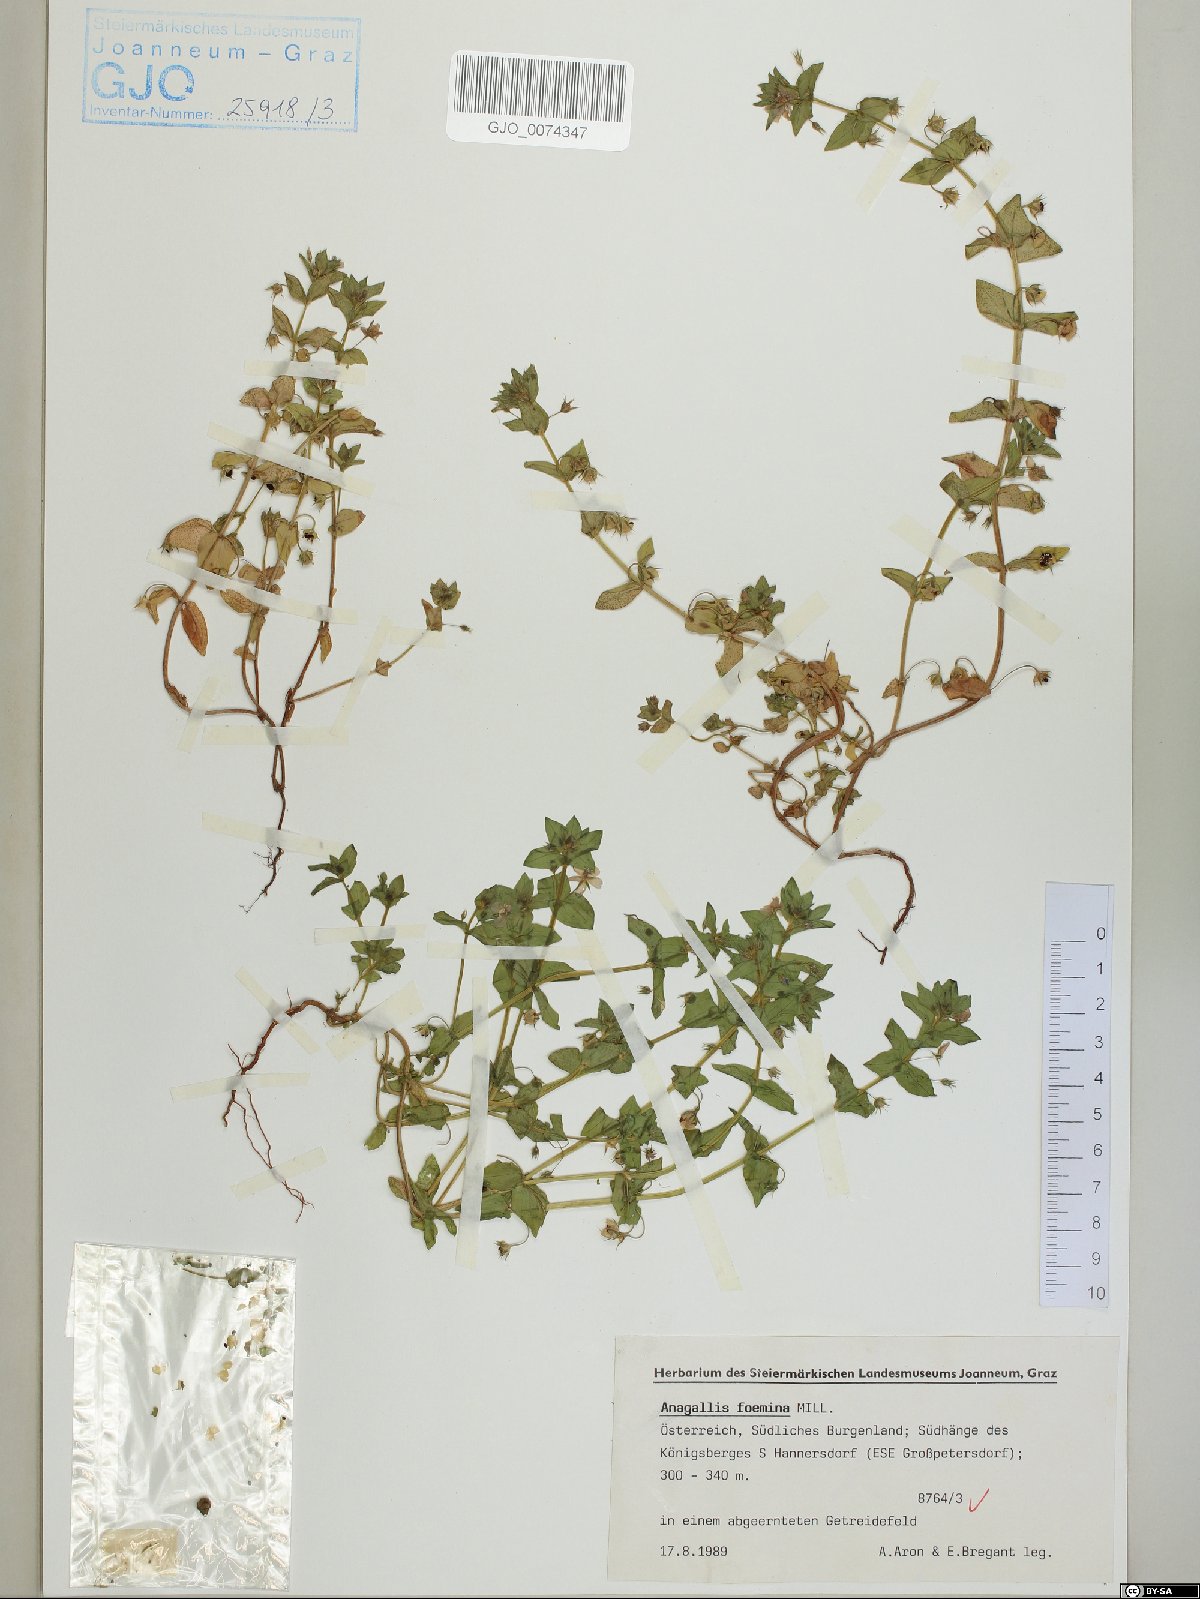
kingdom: Plantae
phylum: Tracheophyta
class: Magnoliopsida
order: Ericales
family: Primulaceae
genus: Lysimachia
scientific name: Lysimachia foemina
